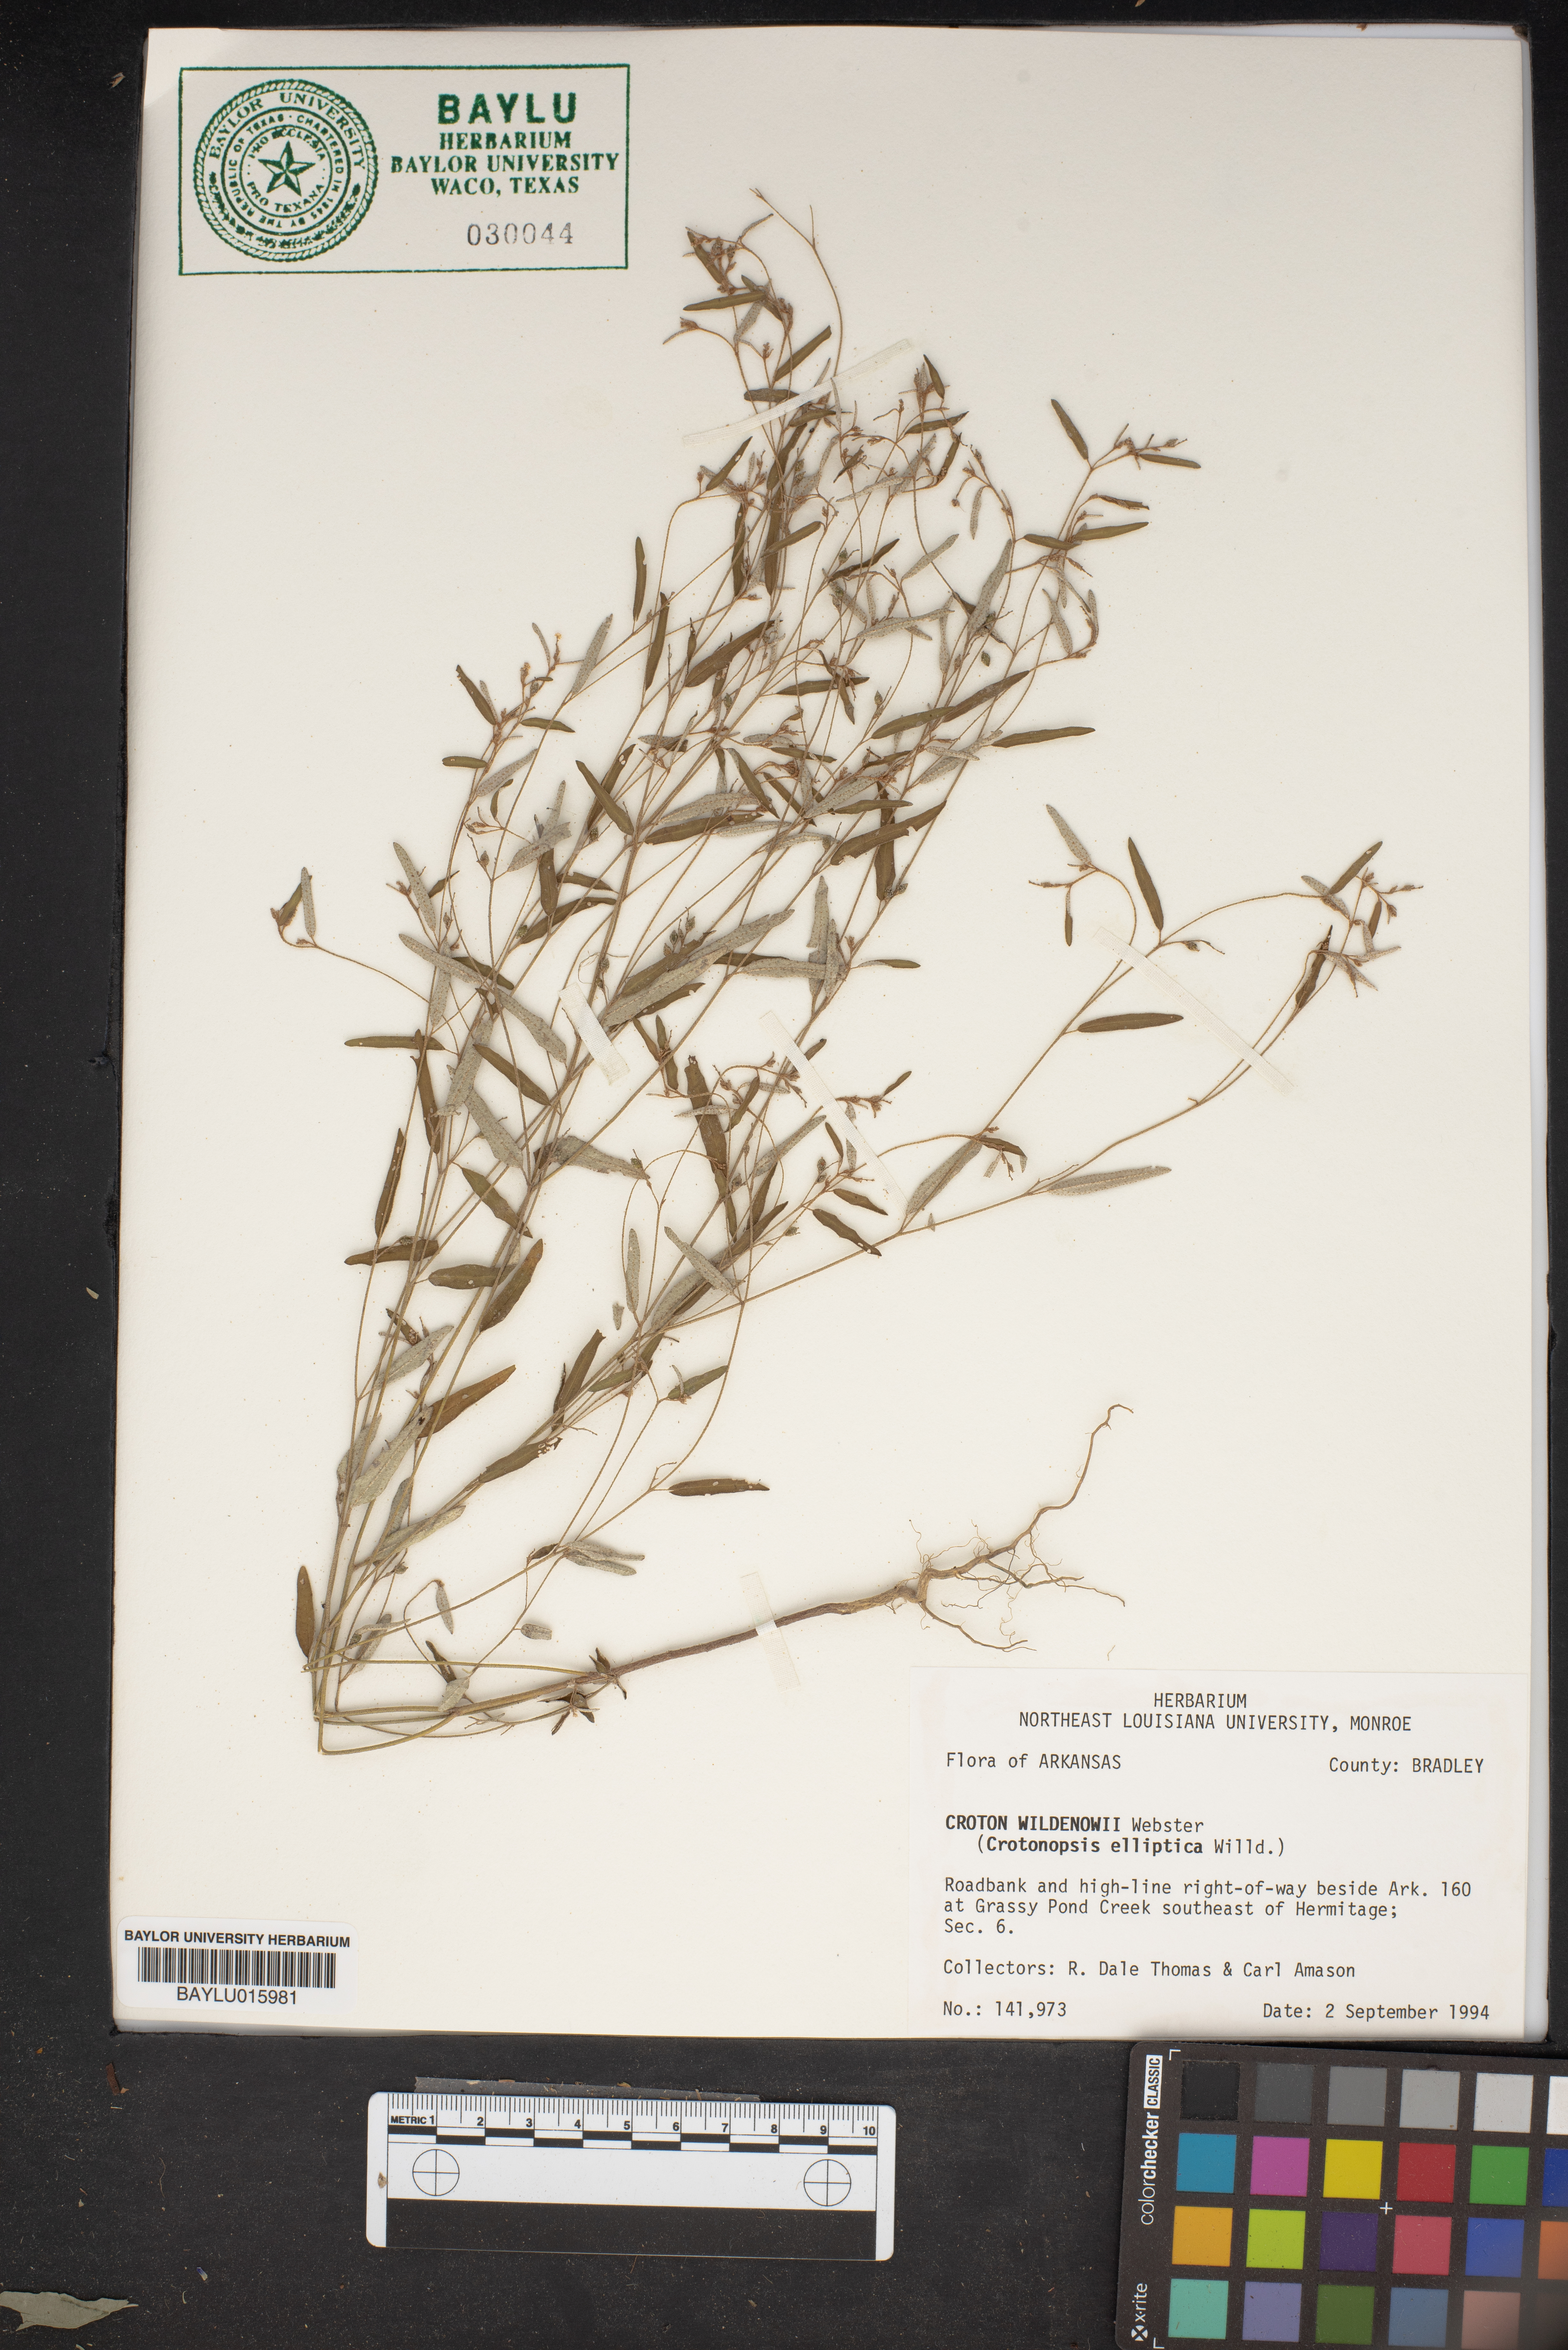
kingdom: Plantae
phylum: Tracheophyta
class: Magnoliopsida
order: Malpighiales
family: Euphorbiaceae
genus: Croton
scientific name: Croton michauxii
